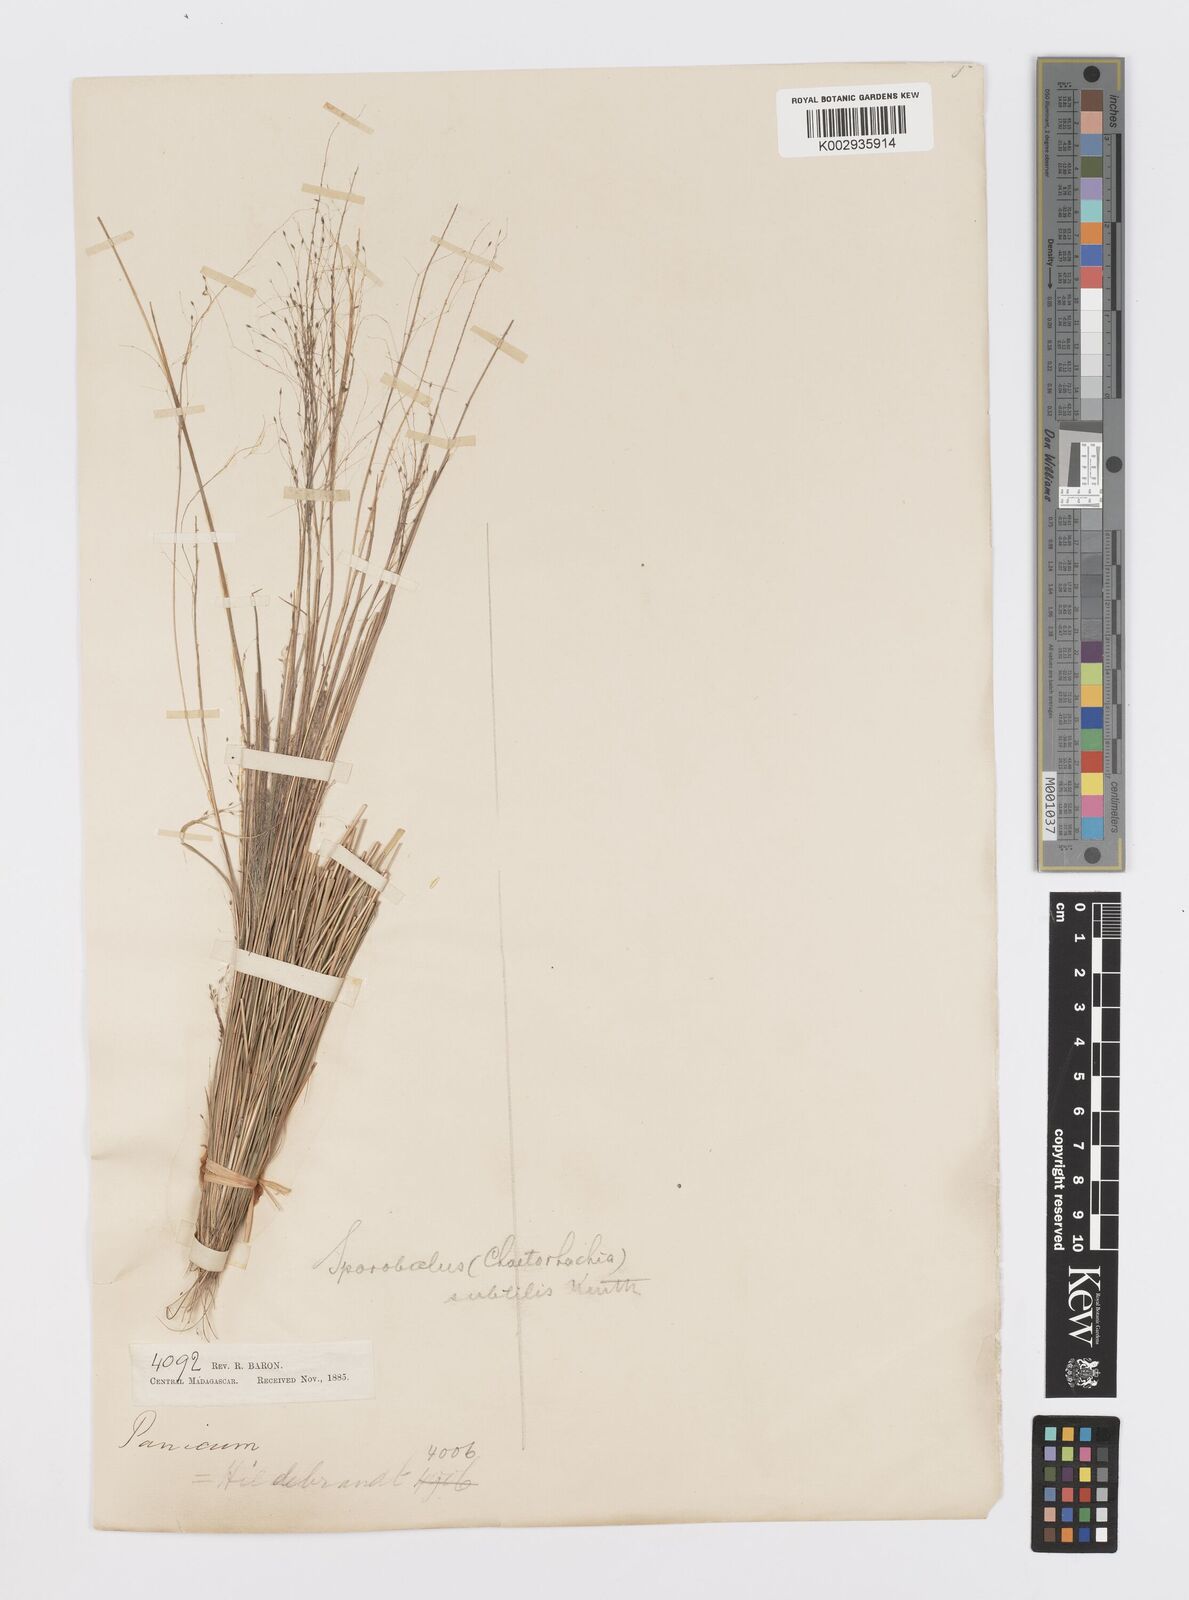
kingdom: Plantae
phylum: Tracheophyta
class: Liliopsida
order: Poales
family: Poaceae
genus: Sporobolus
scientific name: Sporobolus subtilis
